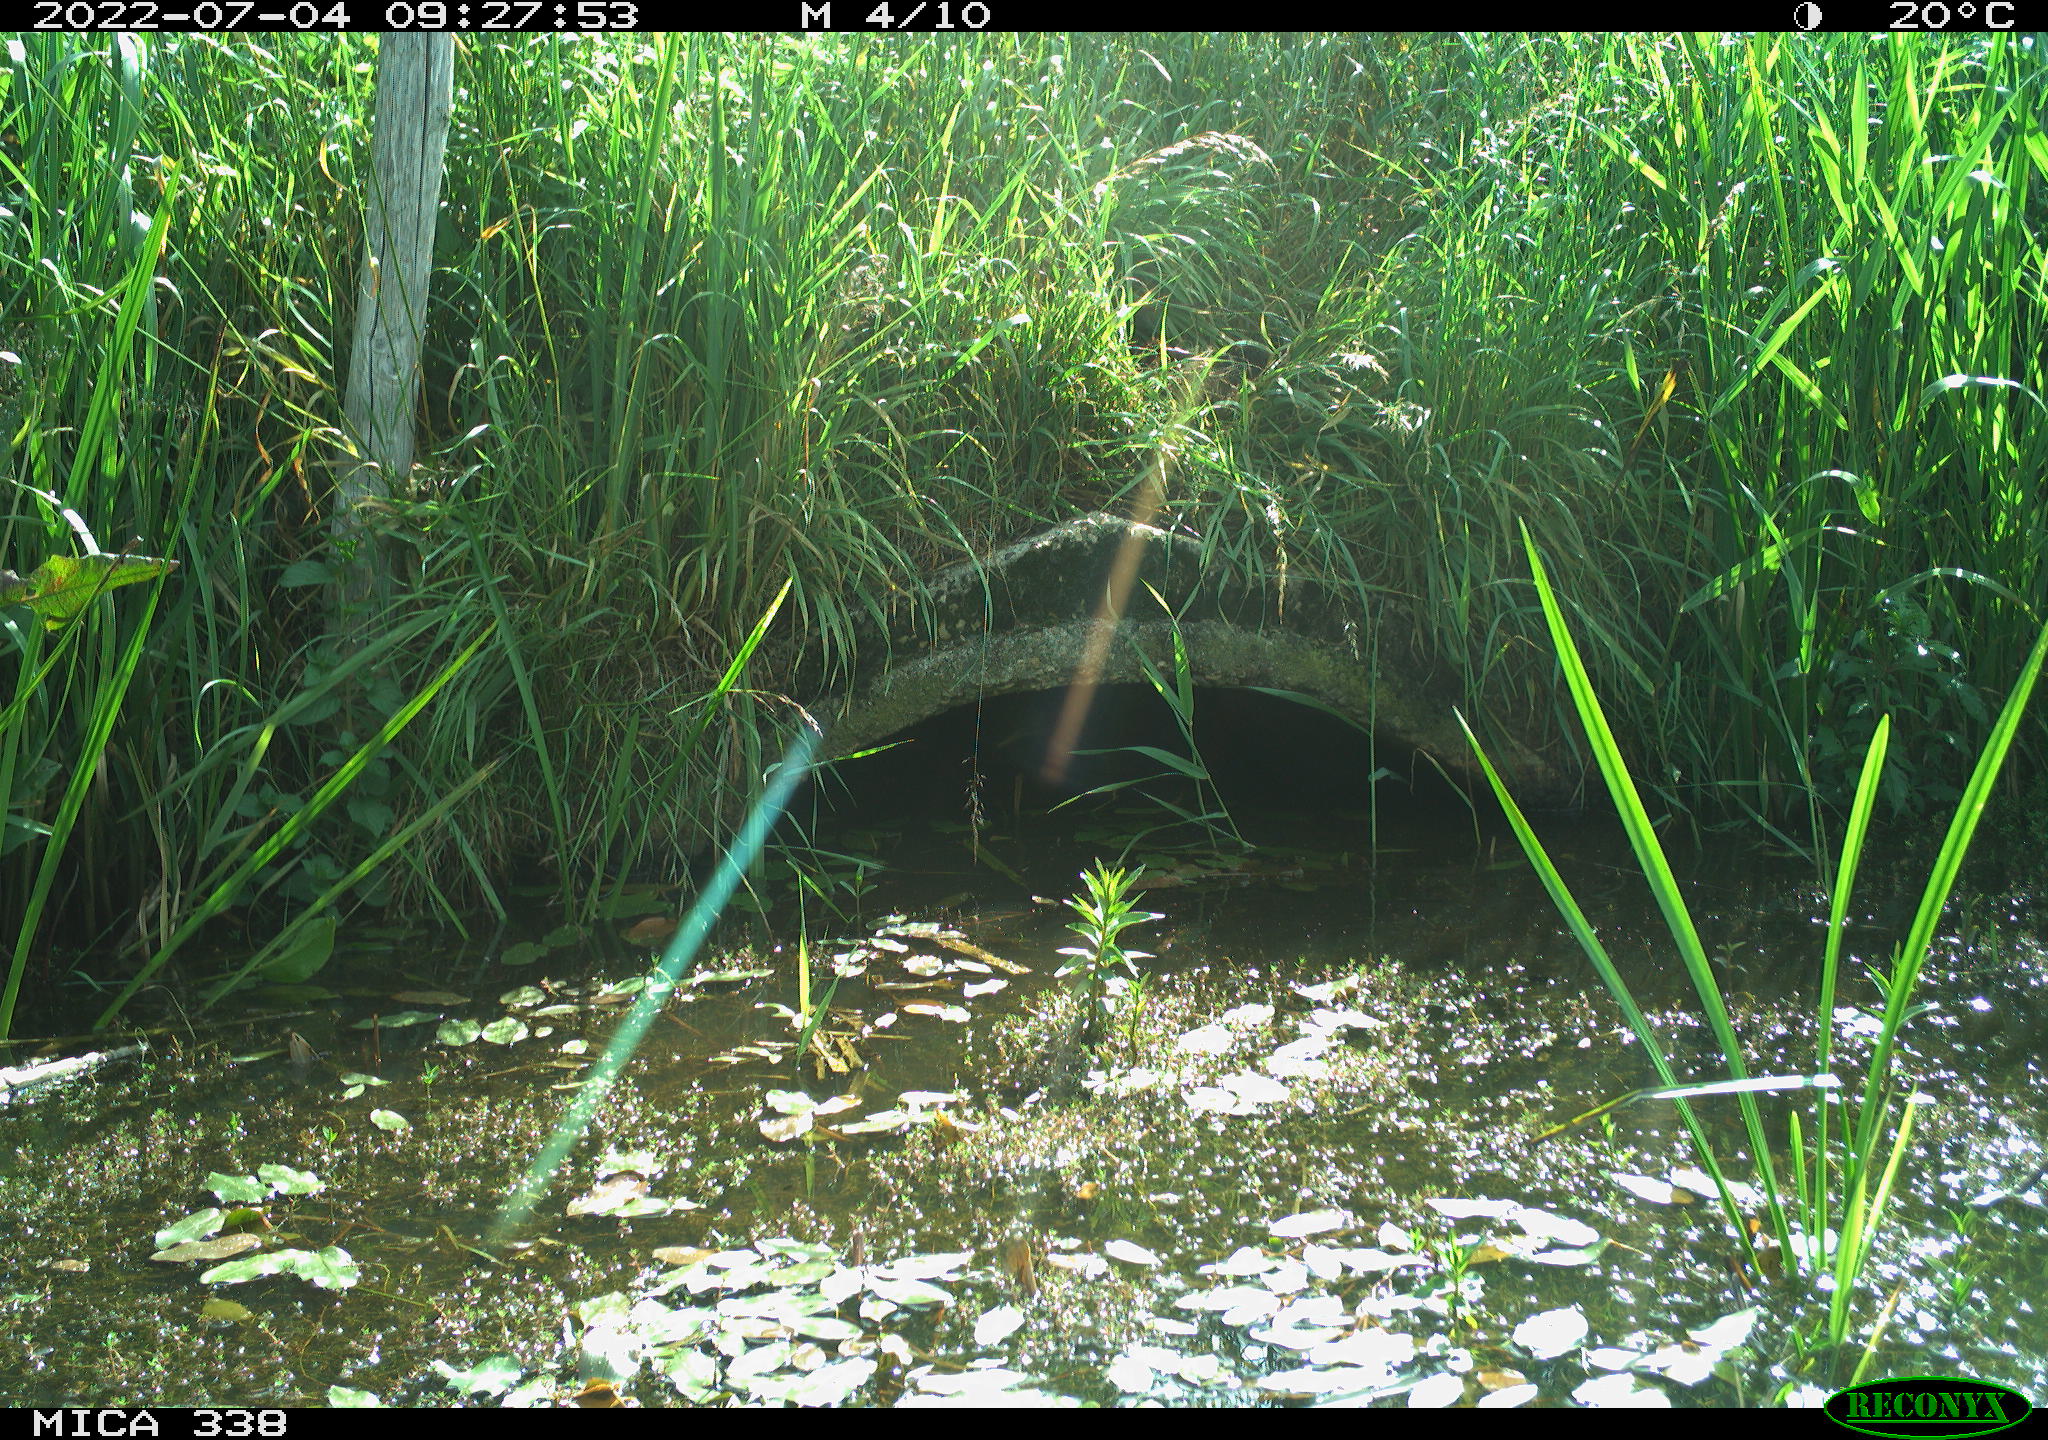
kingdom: Animalia
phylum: Chordata
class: Aves
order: Anseriformes
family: Anatidae
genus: Anas
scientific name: Anas platyrhynchos
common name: Mallard
